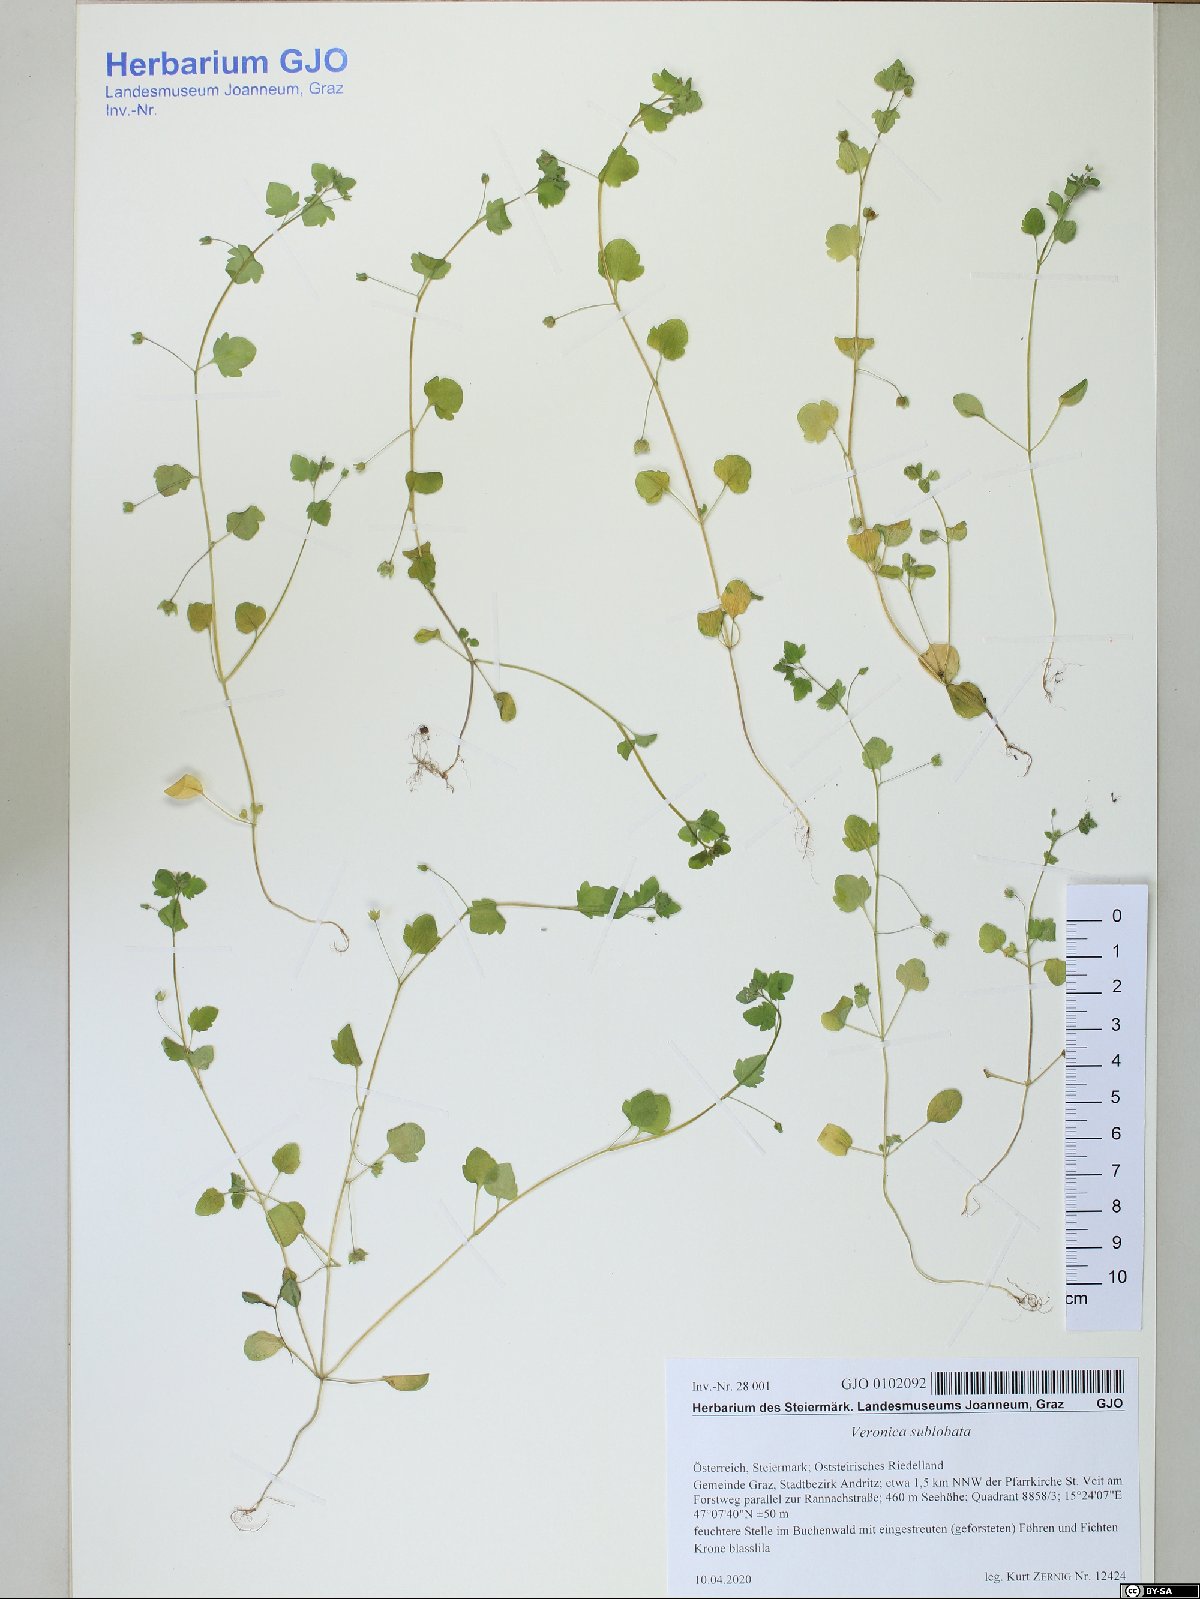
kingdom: Plantae
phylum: Tracheophyta
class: Magnoliopsida
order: Lamiales
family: Plantaginaceae
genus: Veronica
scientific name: Veronica sublobata
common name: False ivy-leaved speedwell
